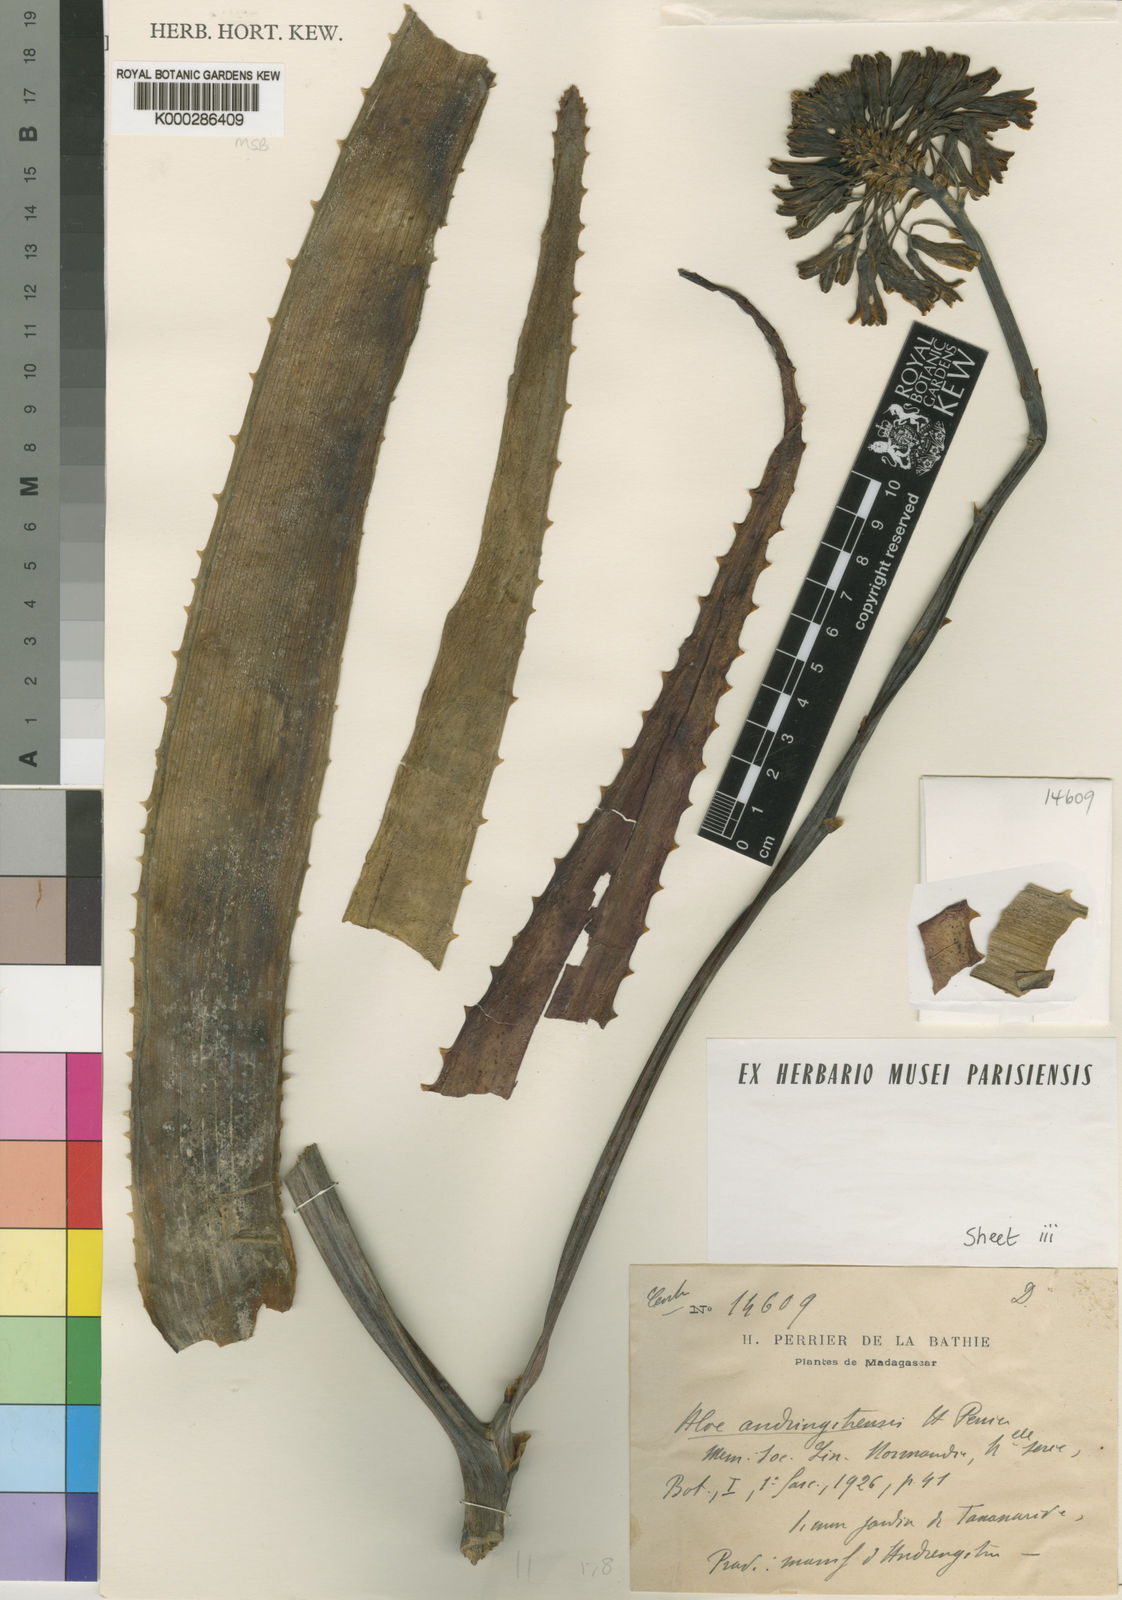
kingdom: Plantae
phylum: Tracheophyta
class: Liliopsida
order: Asparagales
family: Asphodelaceae
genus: Aloe
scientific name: Aloe
